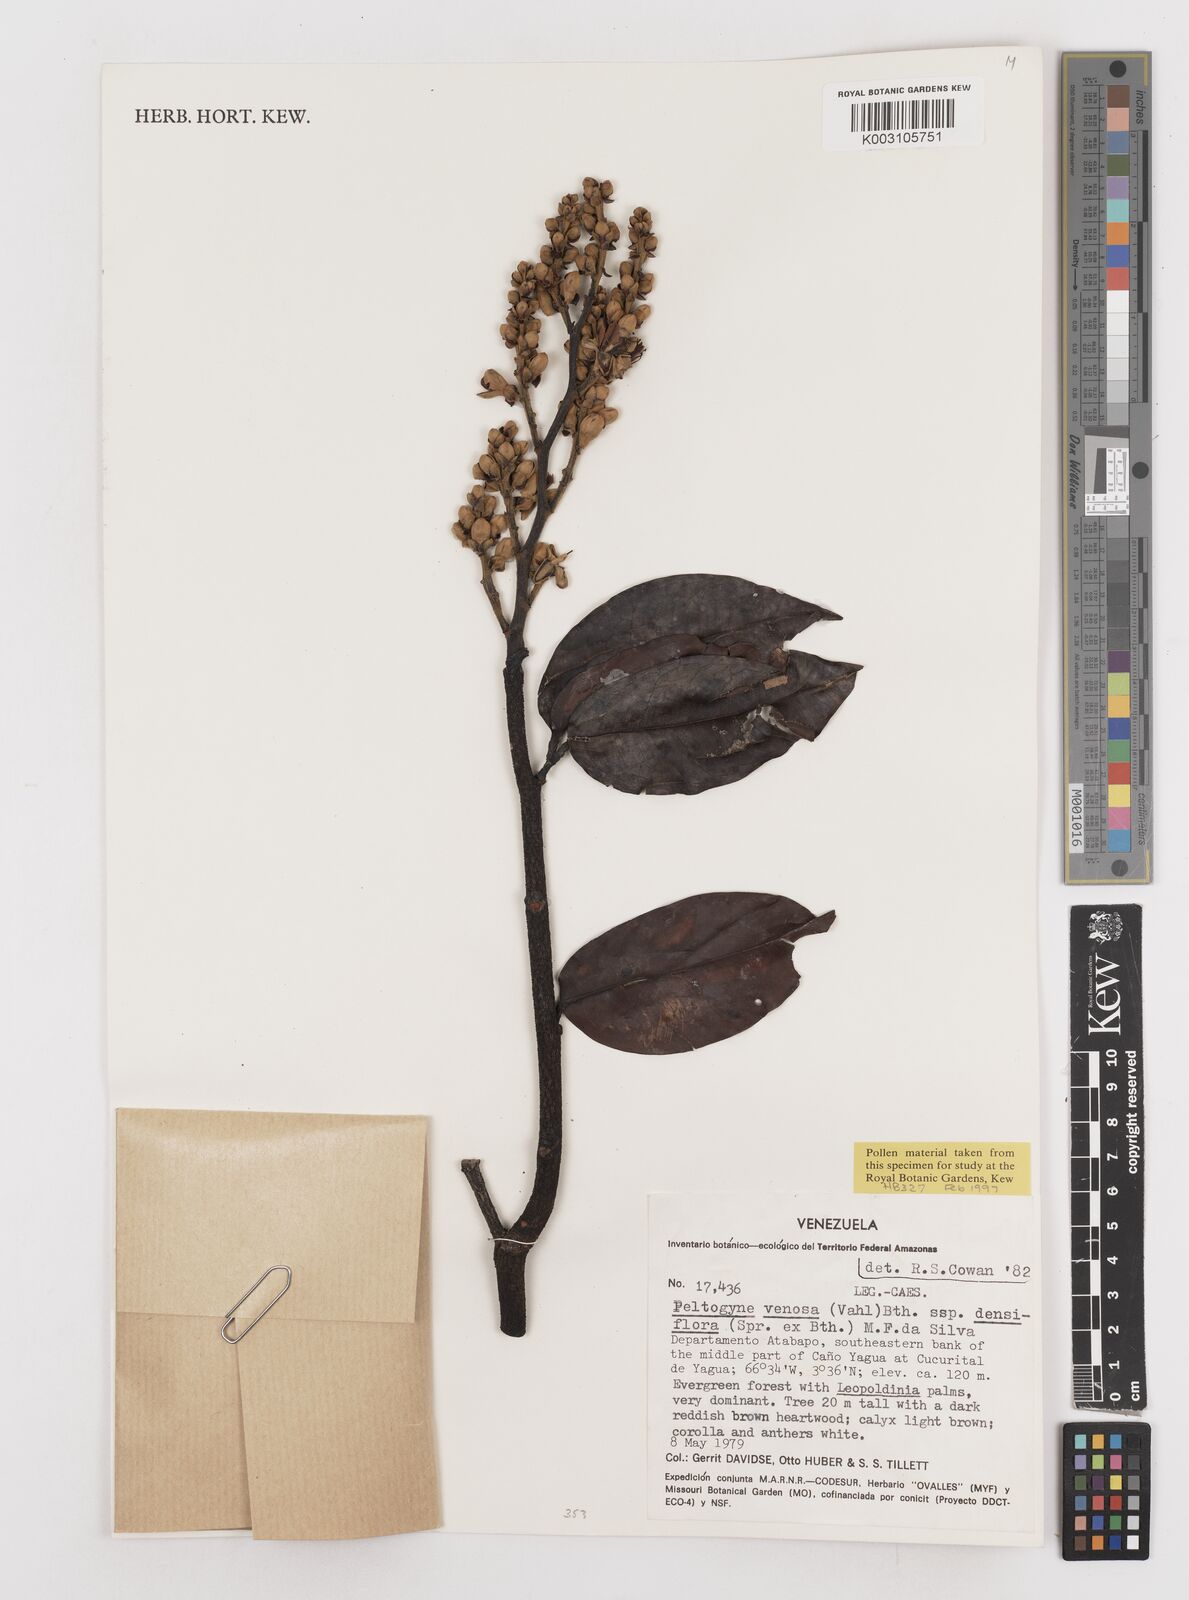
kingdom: Plantae
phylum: Tracheophyta
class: Magnoliopsida
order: Fabales
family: Fabaceae
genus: Peltogyne
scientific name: Peltogyne venosa
